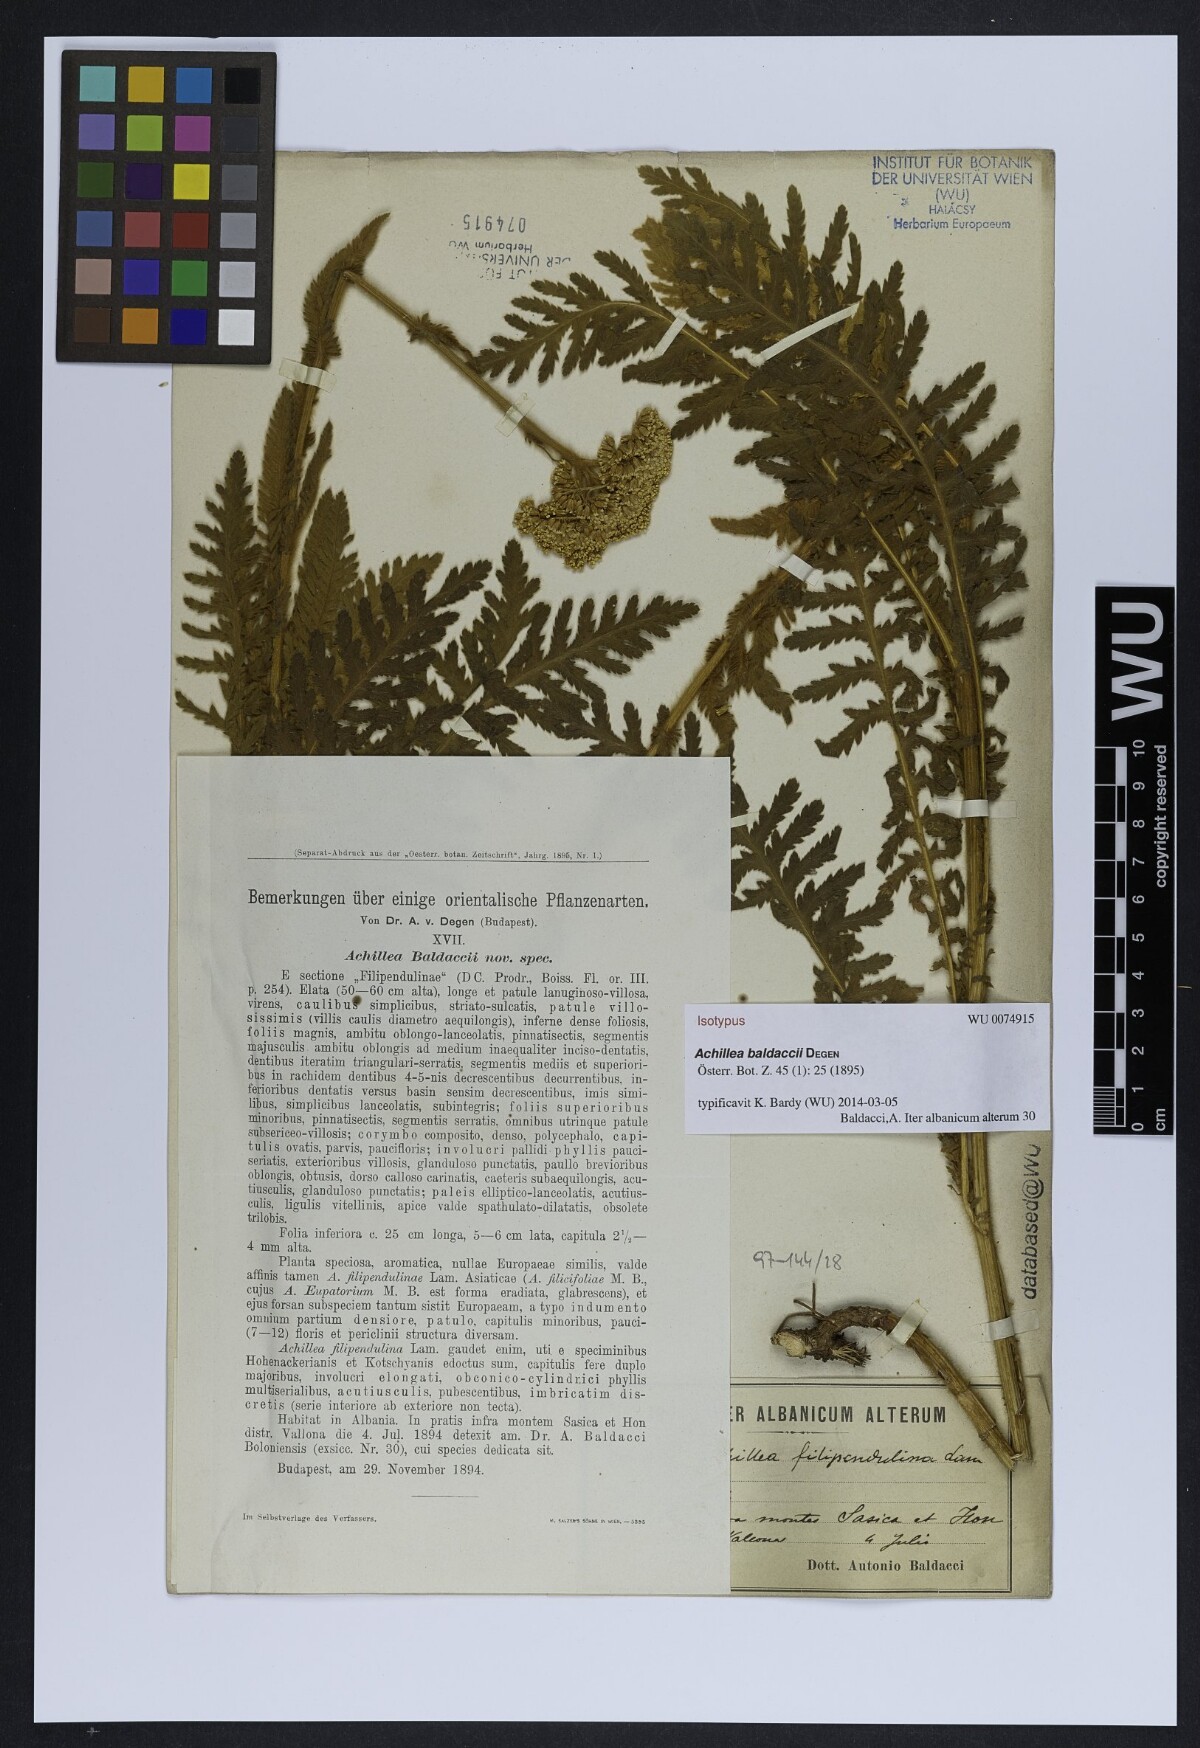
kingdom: Plantae
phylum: Tracheophyta
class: Magnoliopsida
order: Asterales
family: Asteraceae
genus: Achillea
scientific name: Achillea baldaccii
